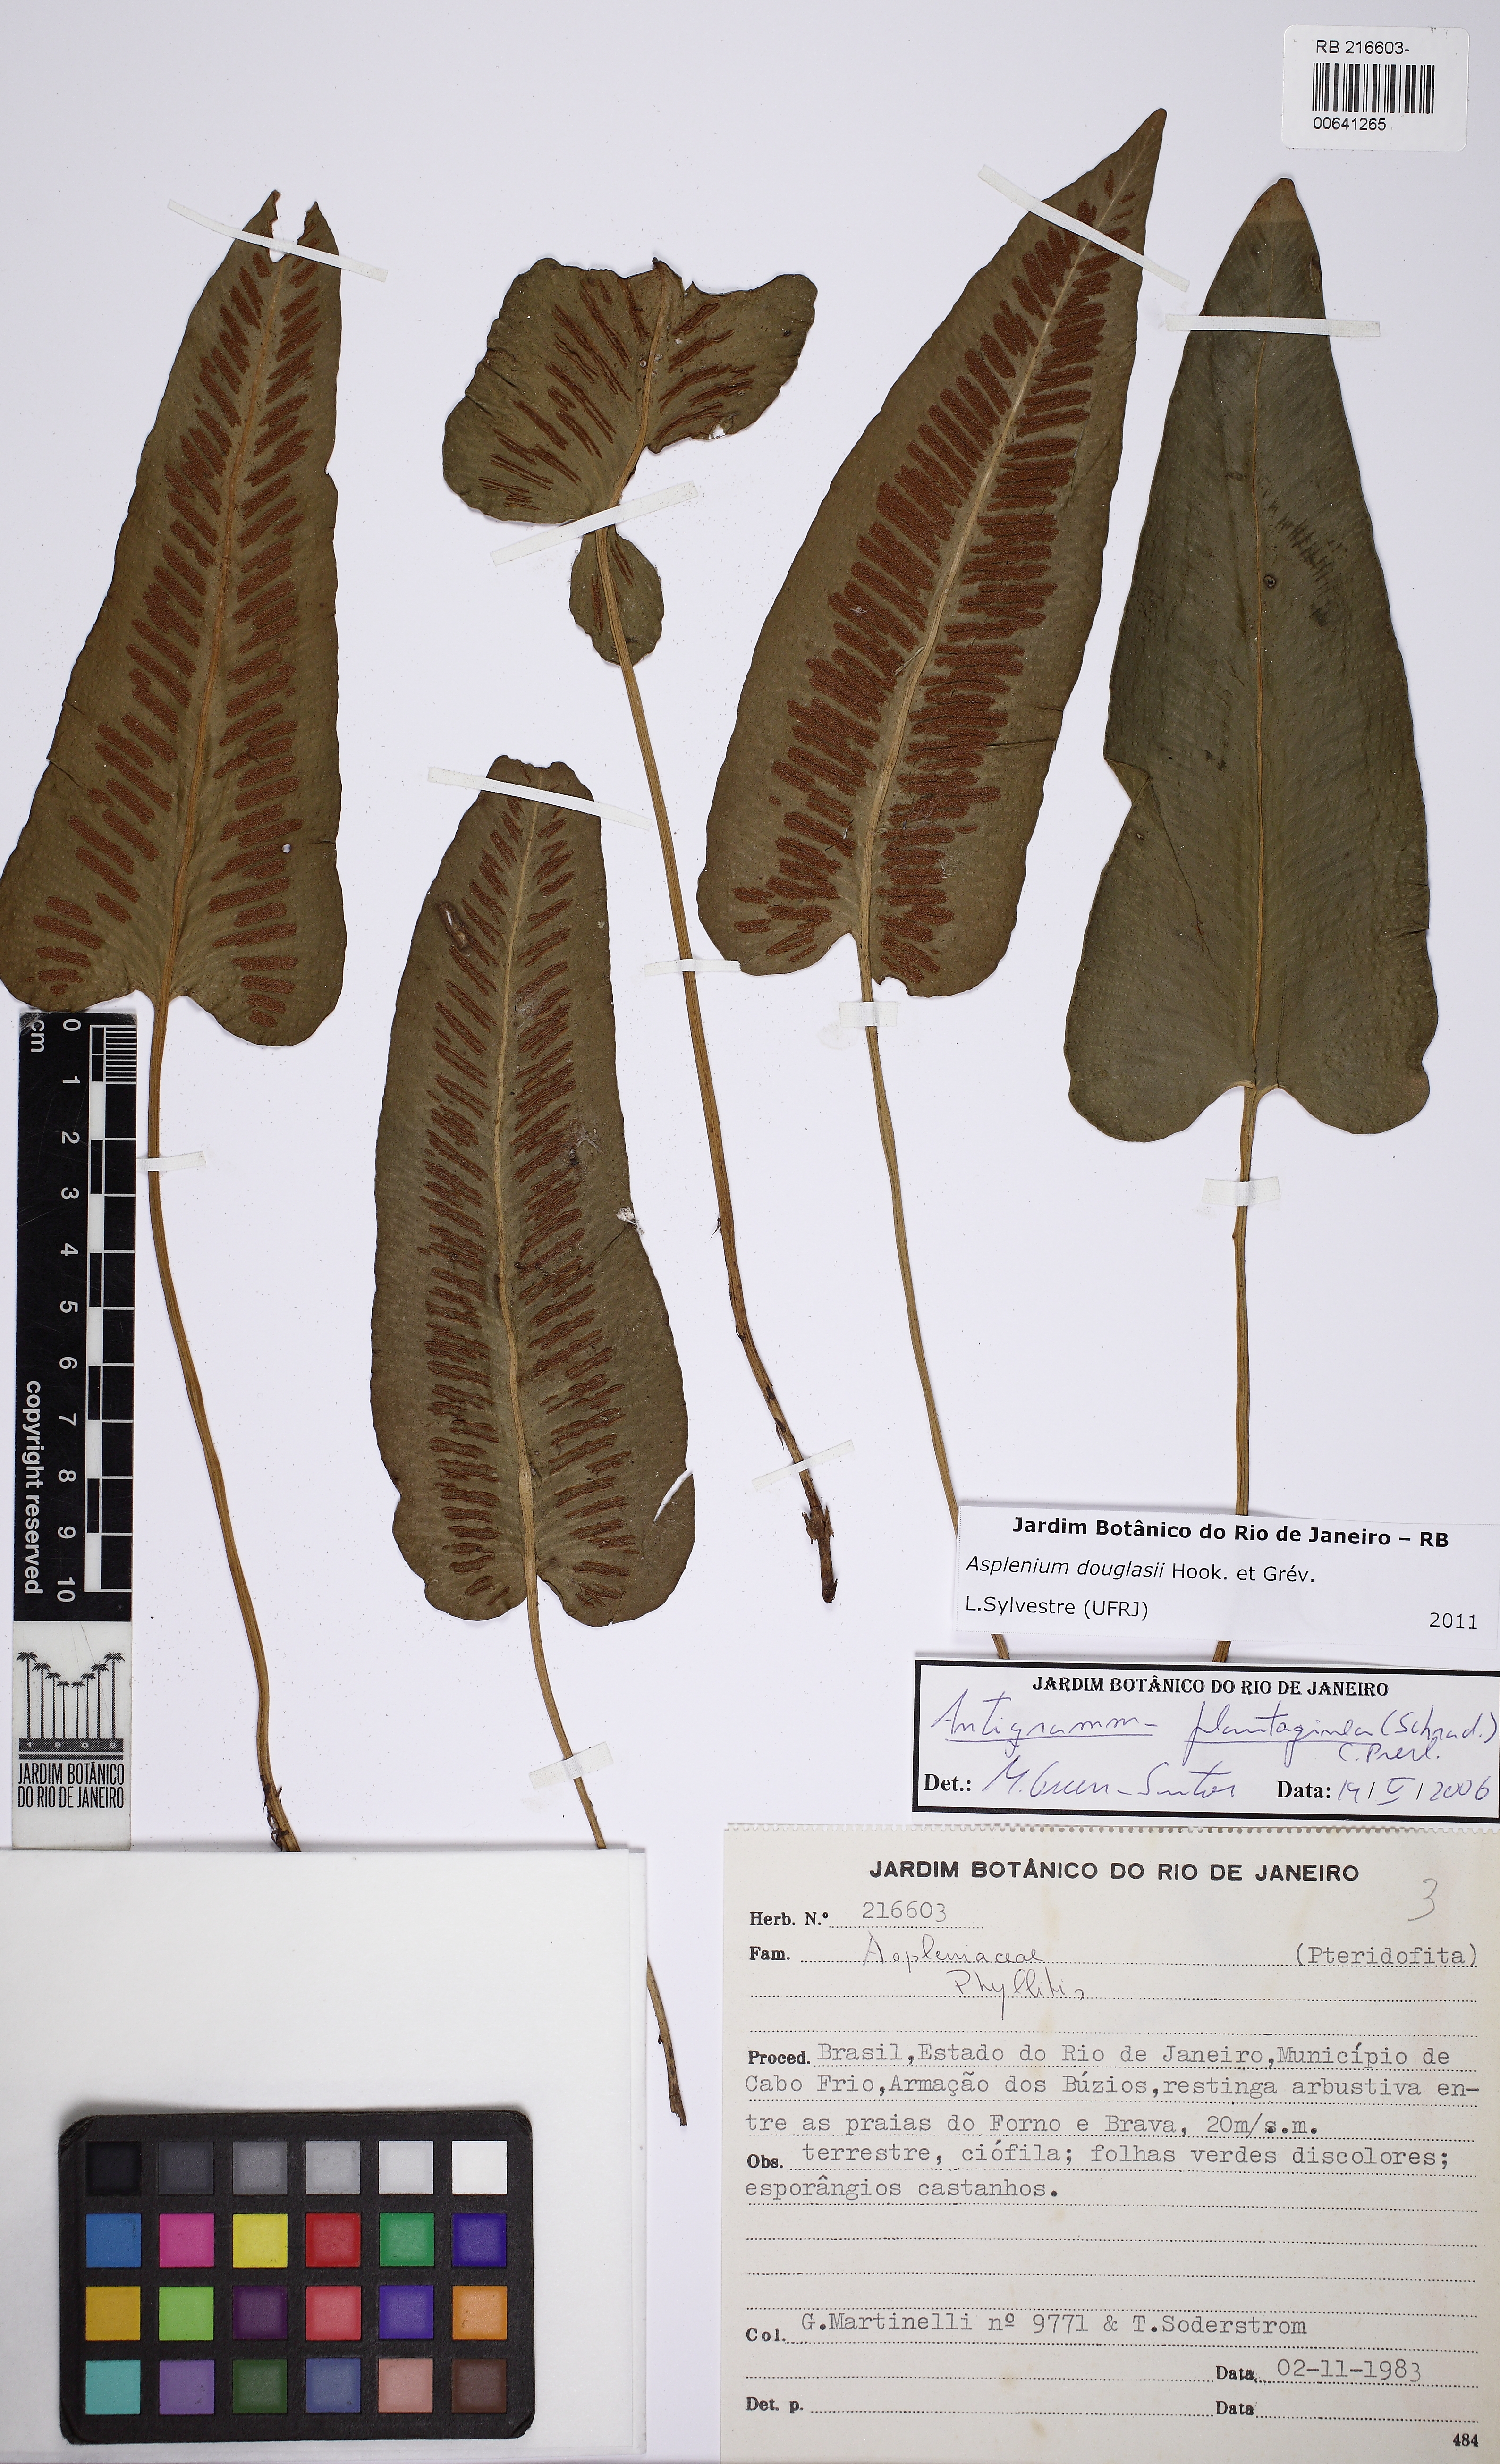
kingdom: Plantae
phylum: Tracheophyta
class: Polypodiopsida
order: Polypodiales
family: Aspleniaceae
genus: Asplenium
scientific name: Asplenium douglasii
